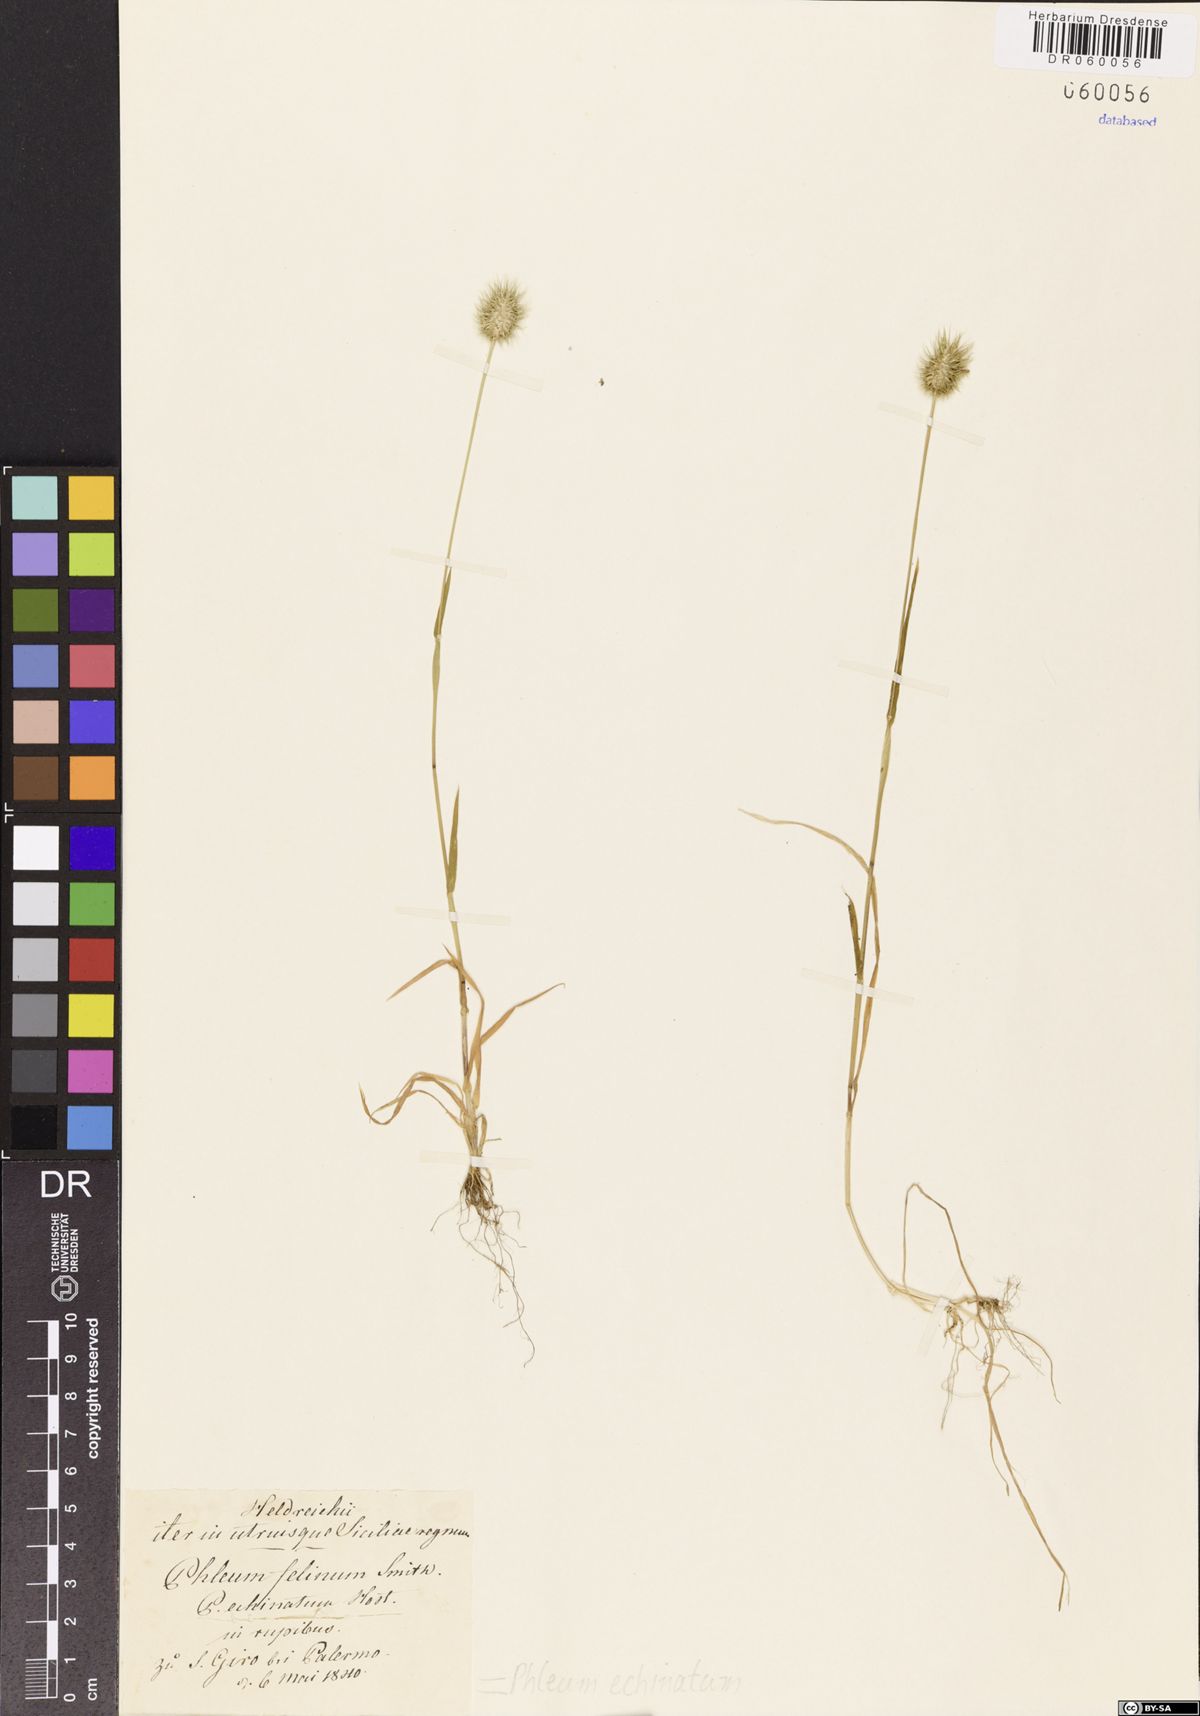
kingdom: Plantae
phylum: Tracheophyta
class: Liliopsida
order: Poales
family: Poaceae
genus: Phleum
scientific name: Phleum echinatum
